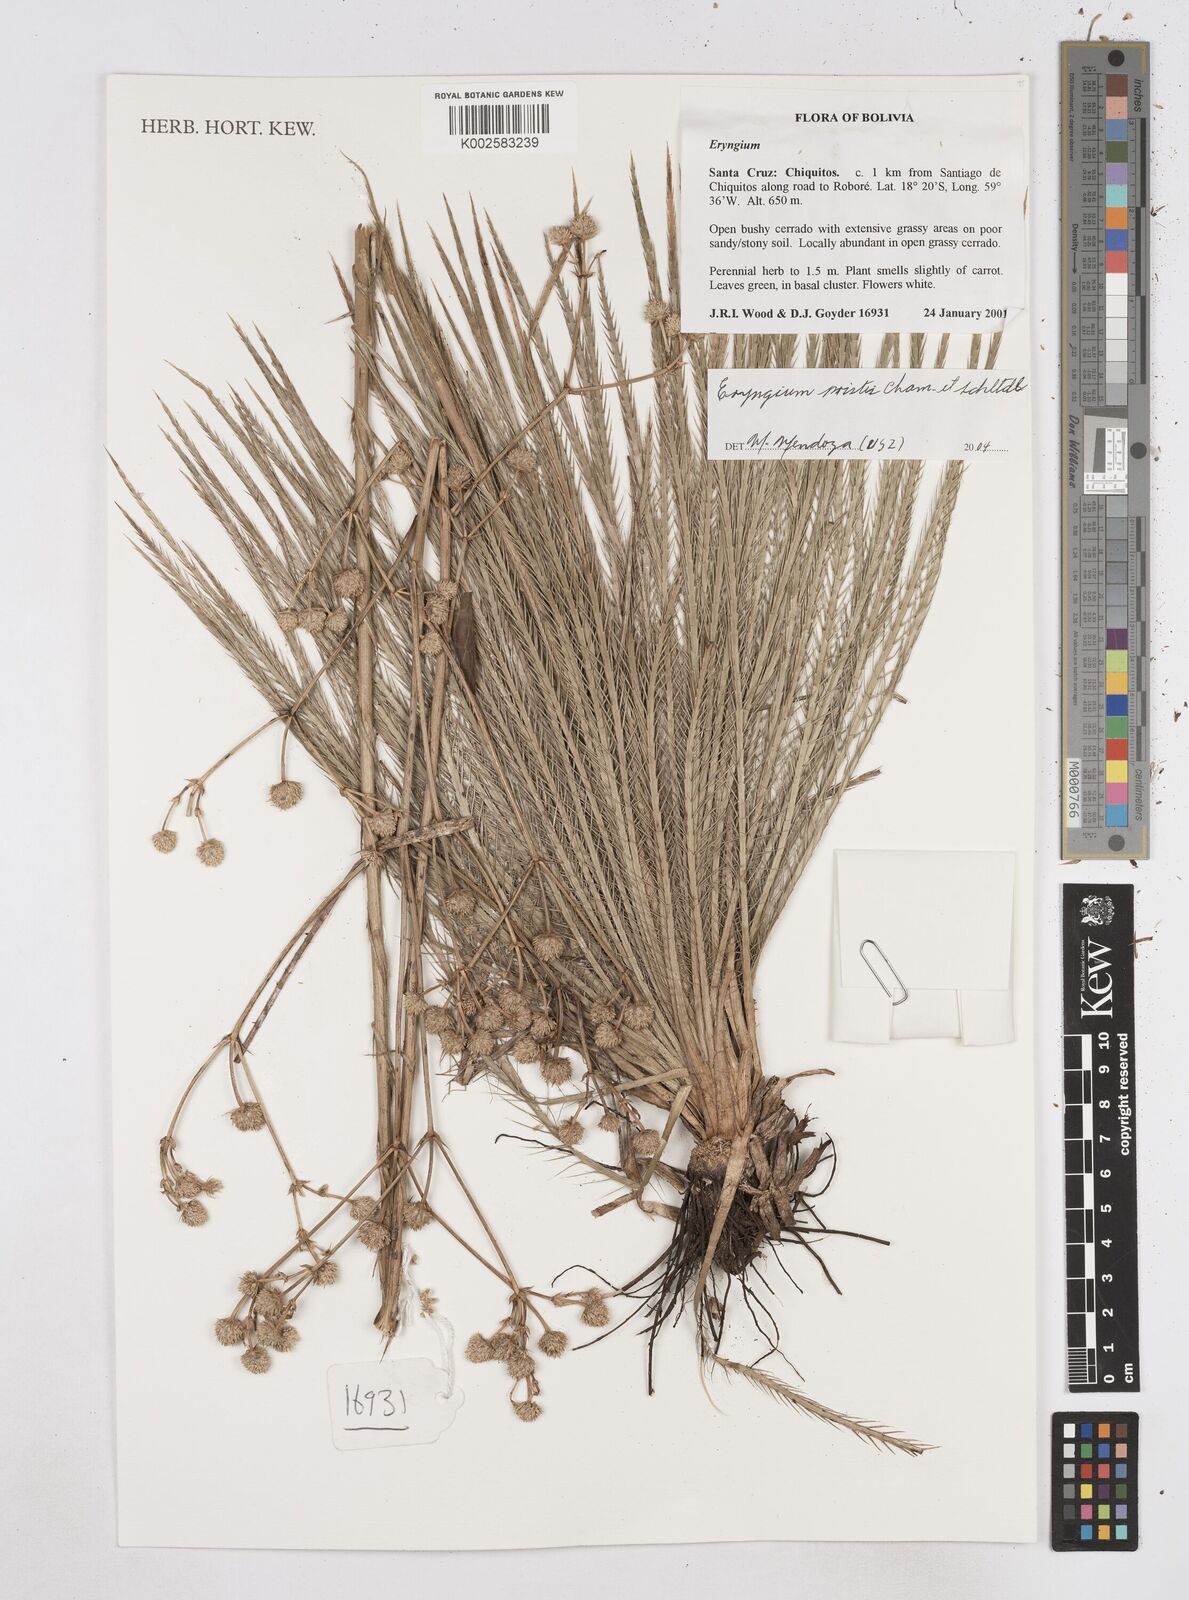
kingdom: Plantae
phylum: Tracheophyta
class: Magnoliopsida
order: Apiales
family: Apiaceae
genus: Eryngium
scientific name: Eryngium pristis
